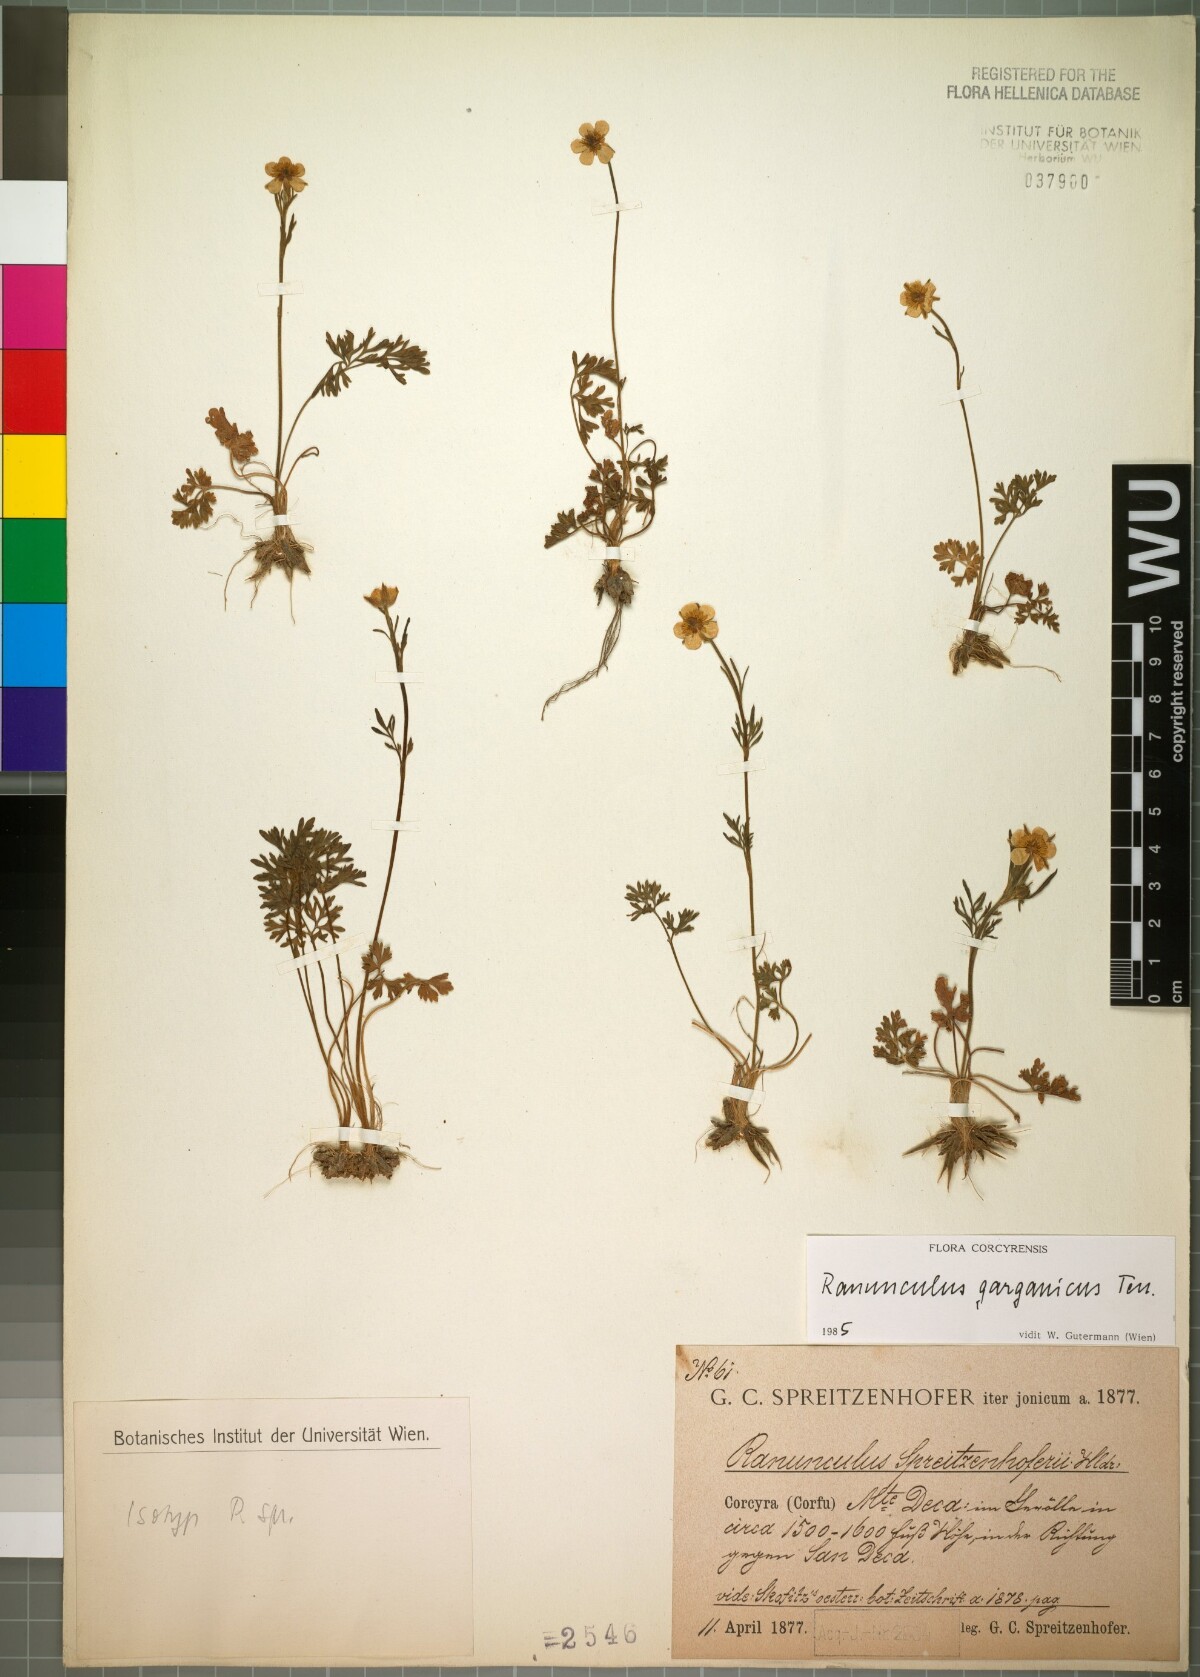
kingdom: Plantae
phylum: Tracheophyta
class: Magnoliopsida
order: Ranunculales
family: Ranunculaceae
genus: Ranunculus
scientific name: Ranunculus garganicus
